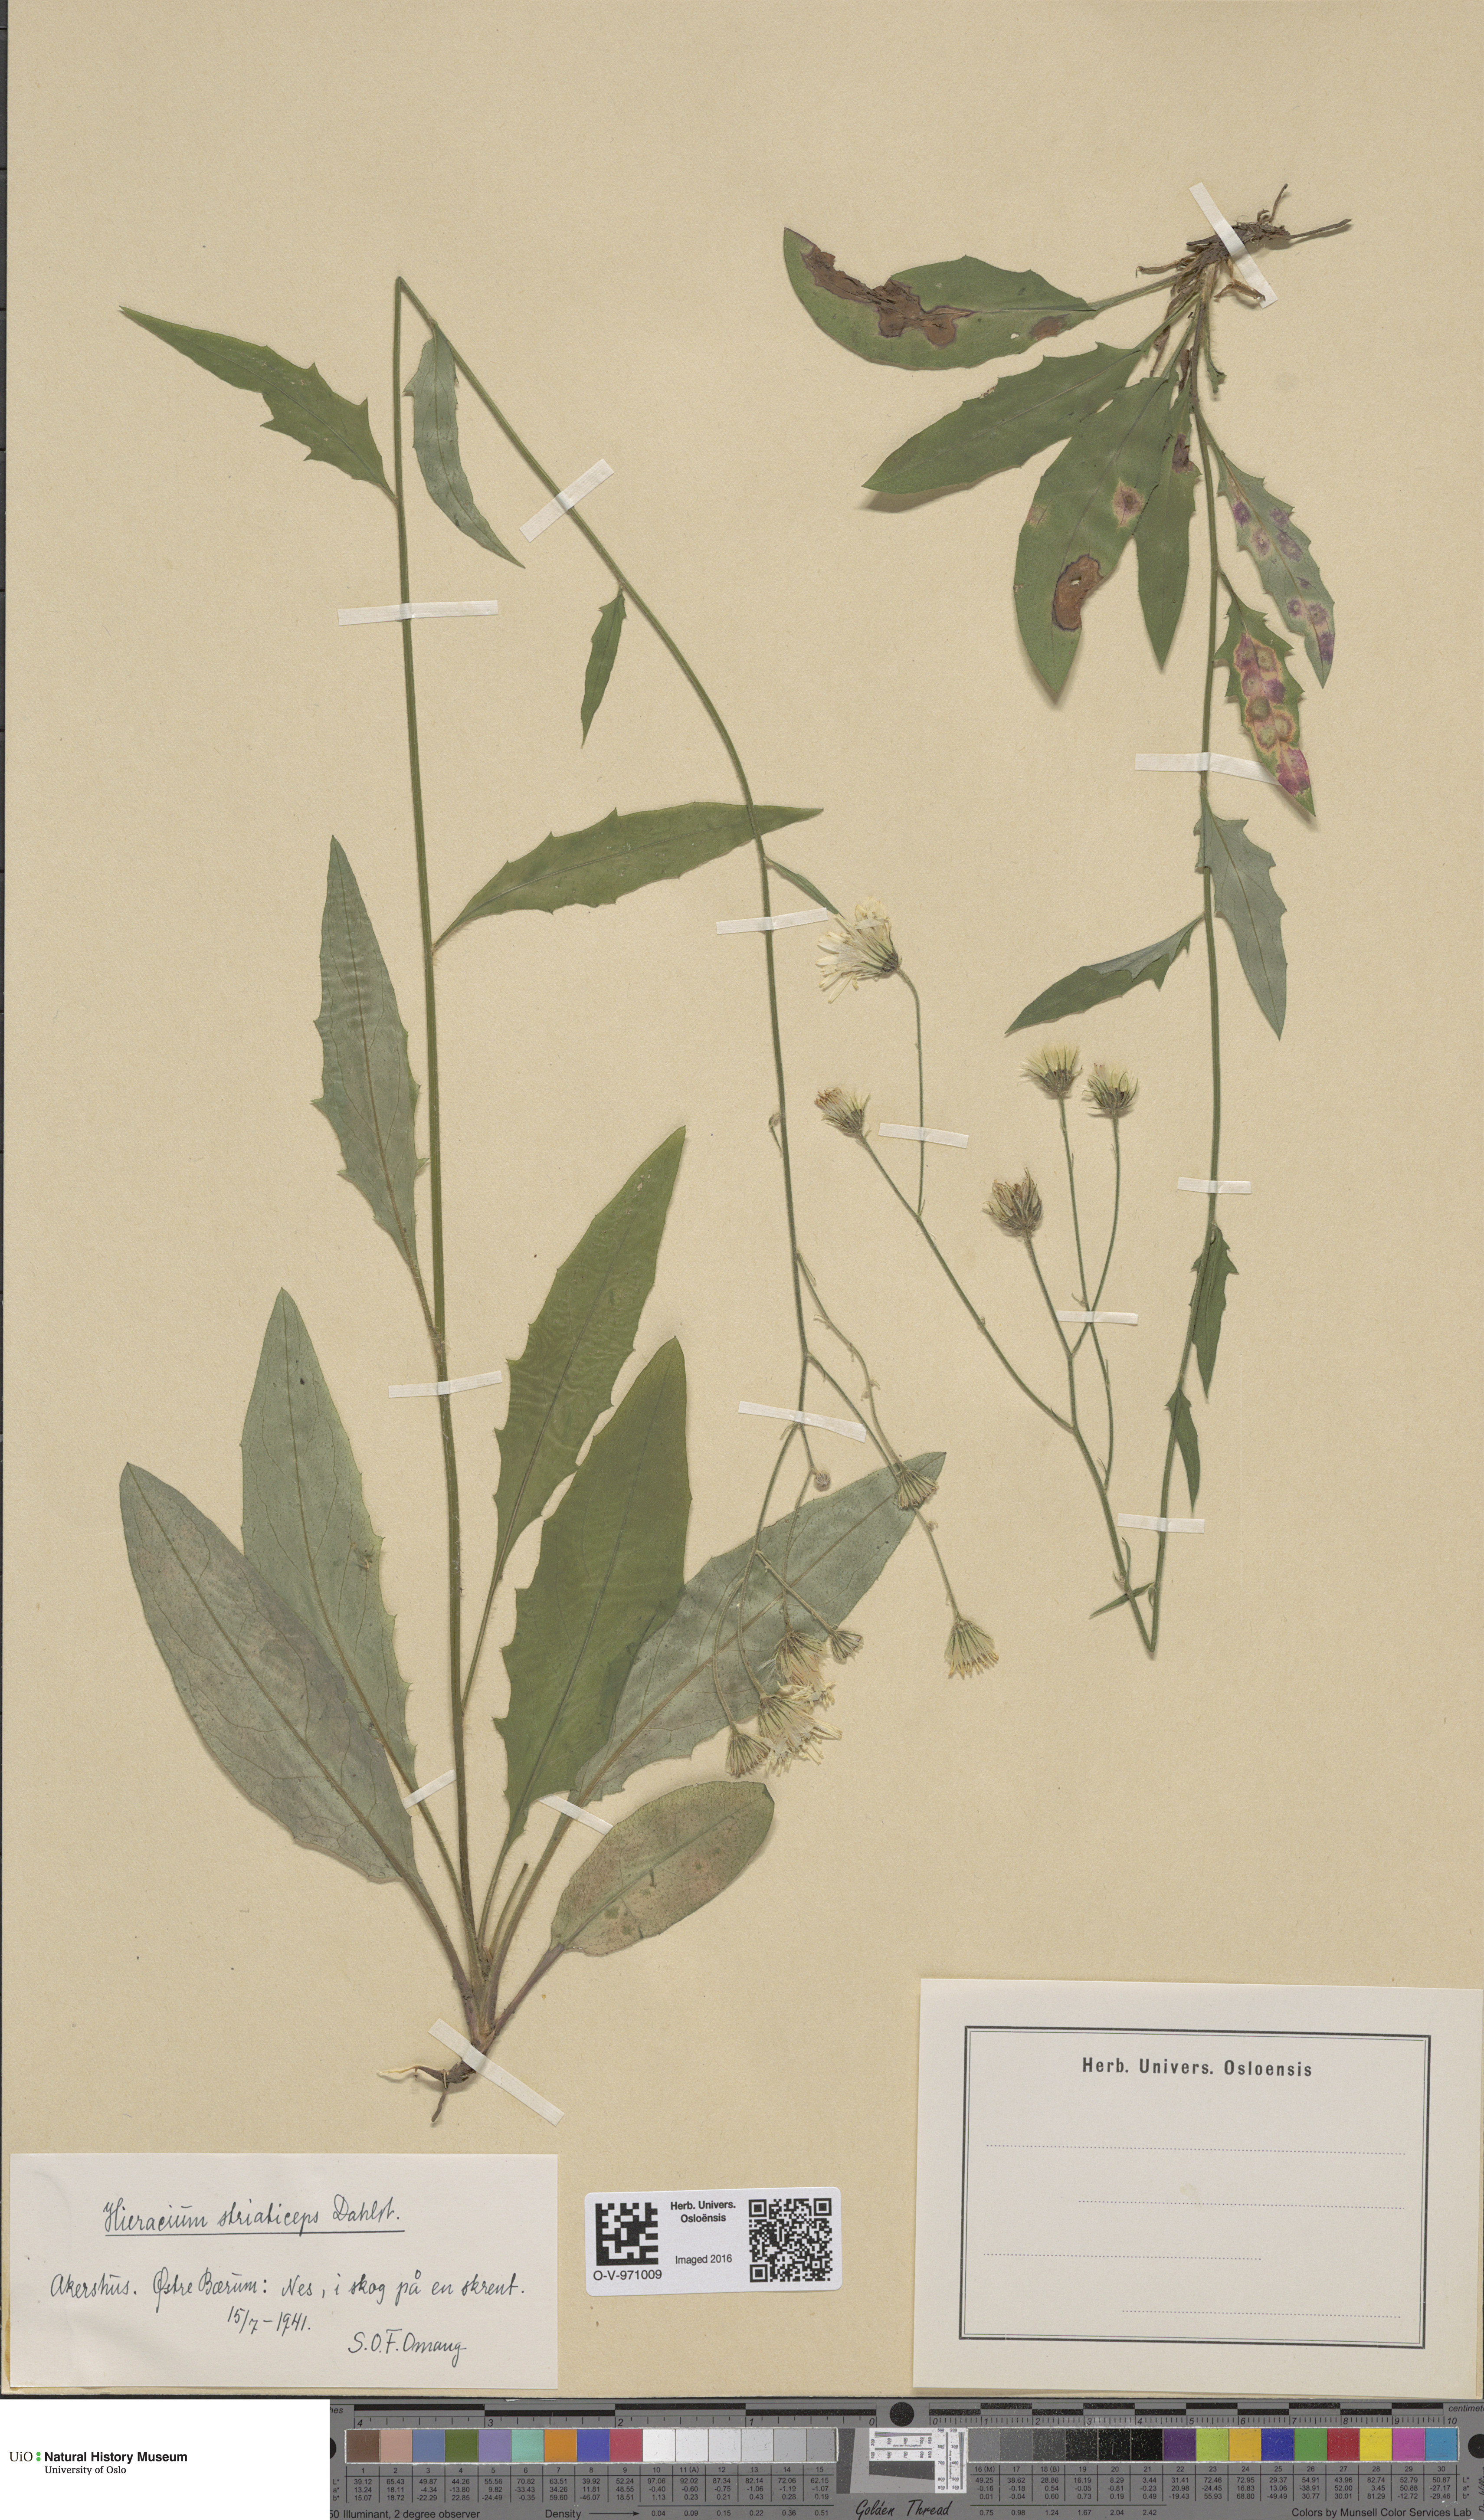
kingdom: Plantae
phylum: Tracheophyta
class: Magnoliopsida
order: Asterales
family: Asteraceae
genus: Hieracium
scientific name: Hieracium
